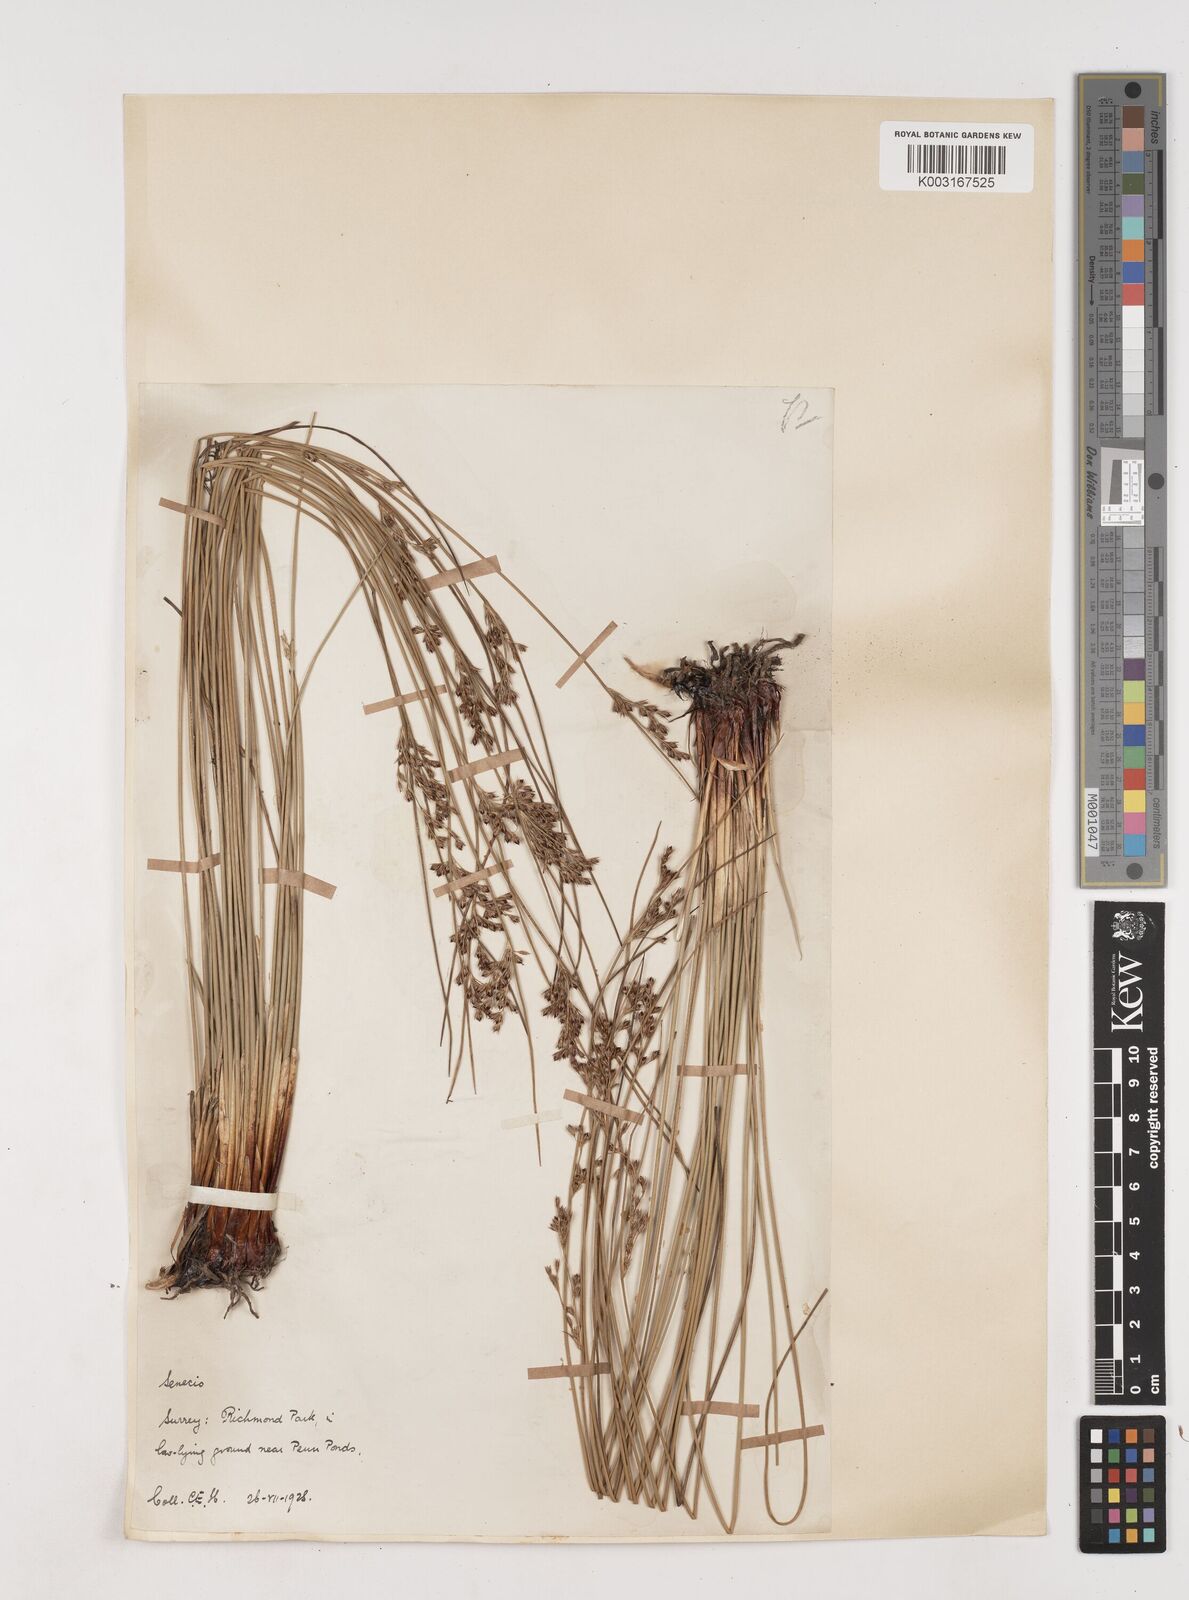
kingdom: Plantae
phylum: Tracheophyta
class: Liliopsida
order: Poales
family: Juncaceae
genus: Juncus
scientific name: Juncus inflexus
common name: Hard rush
